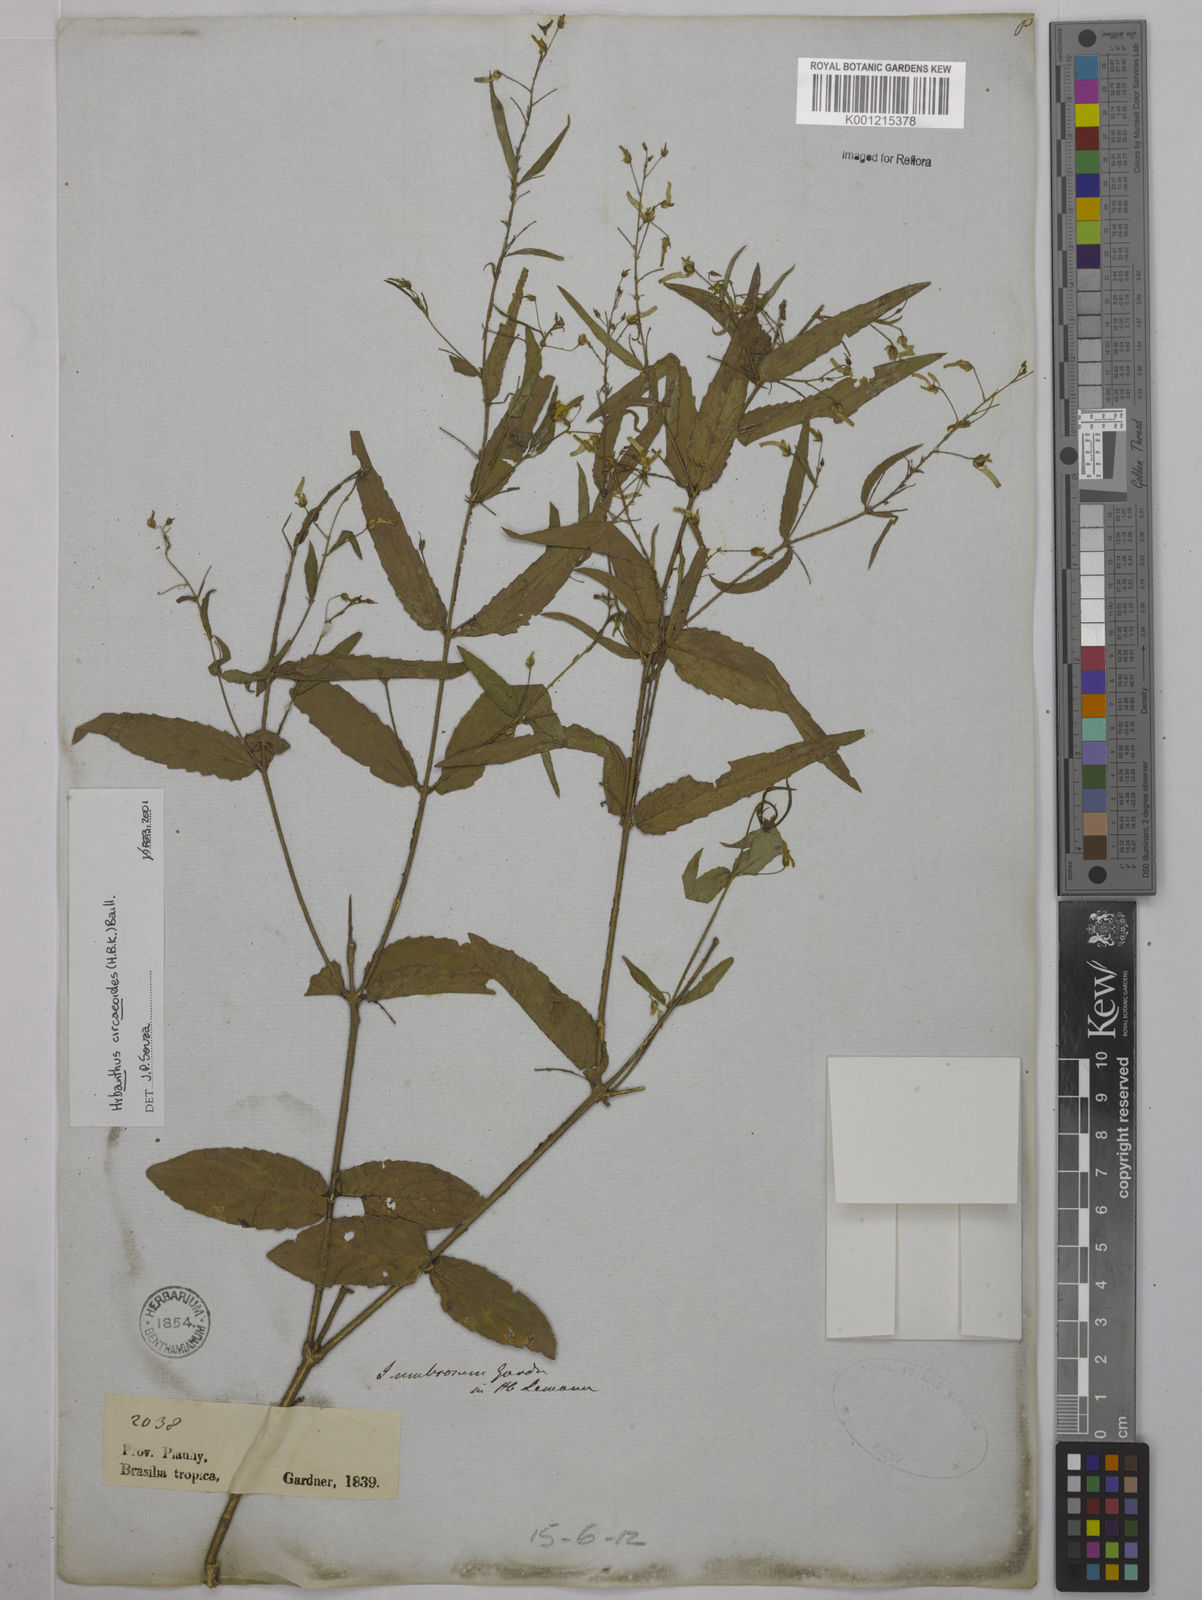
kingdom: Plantae
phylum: Tracheophyta
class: Magnoliopsida
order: Malpighiales
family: Violaceae
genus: Hybanthus
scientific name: Hybanthus
